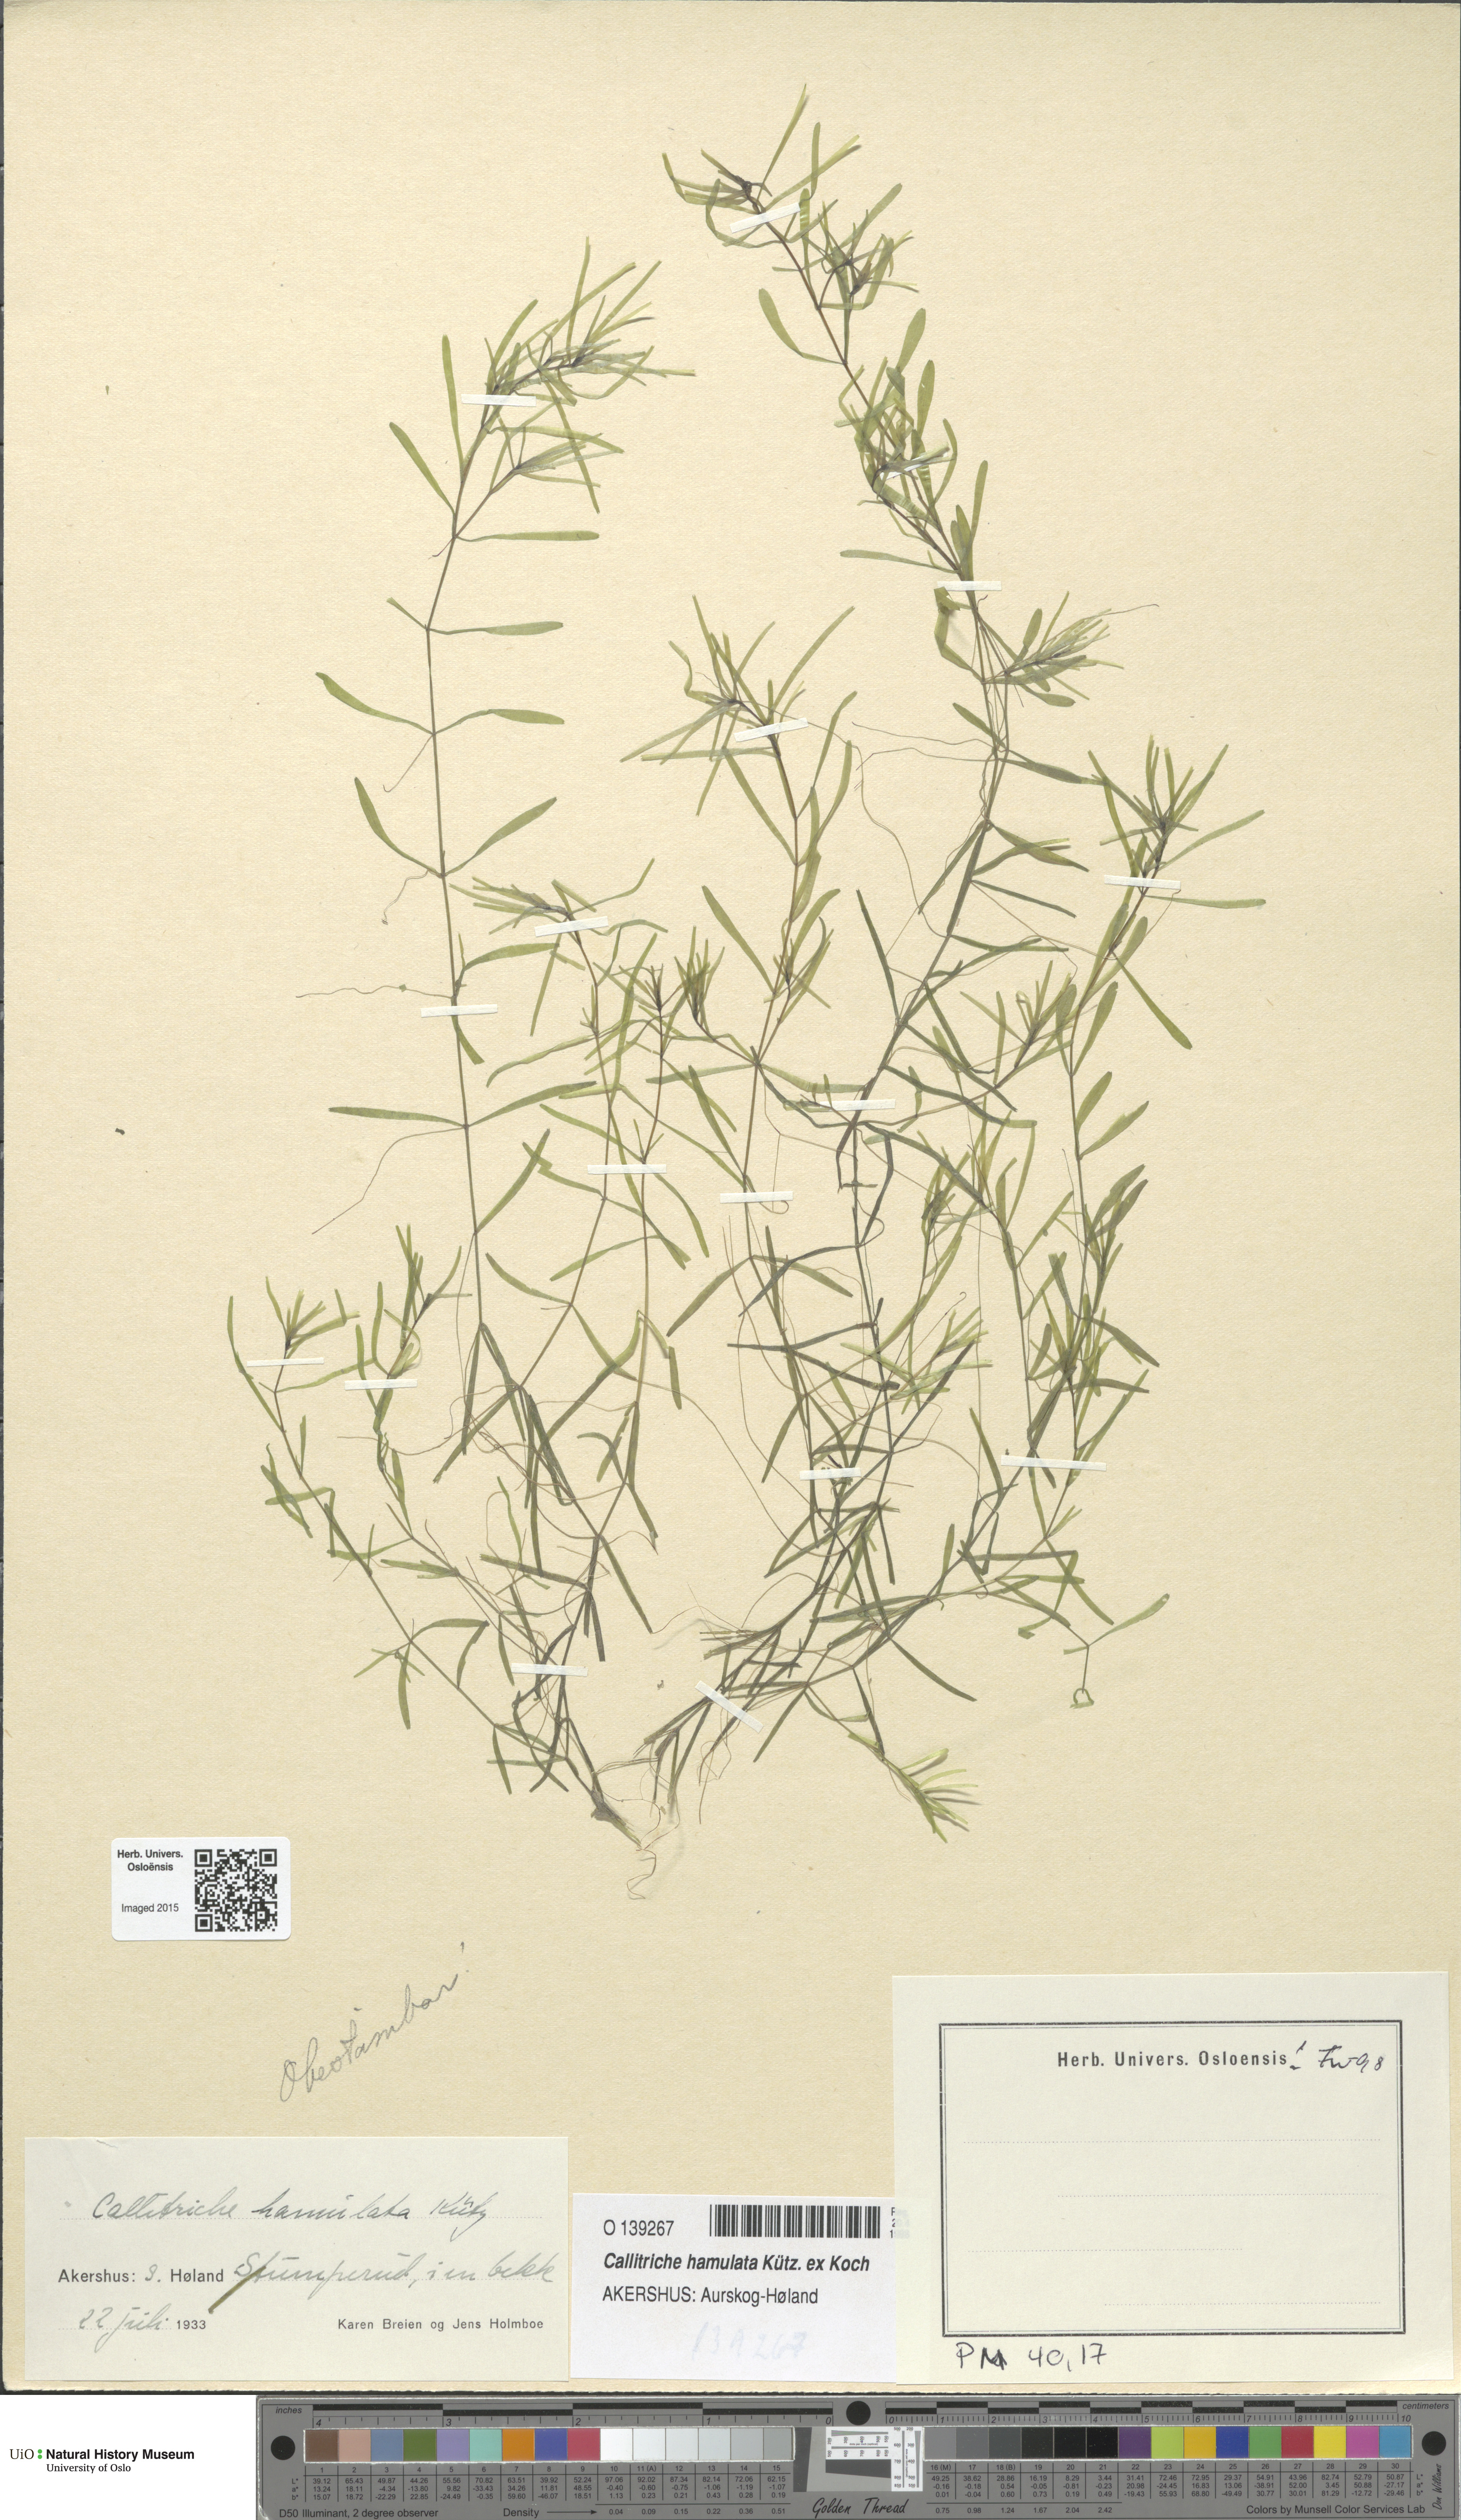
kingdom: Plantae
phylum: Tracheophyta
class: Magnoliopsida
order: Lamiales
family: Plantaginaceae
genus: Callitriche
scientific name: Callitriche hamulata
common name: Intermediate water-starwort
